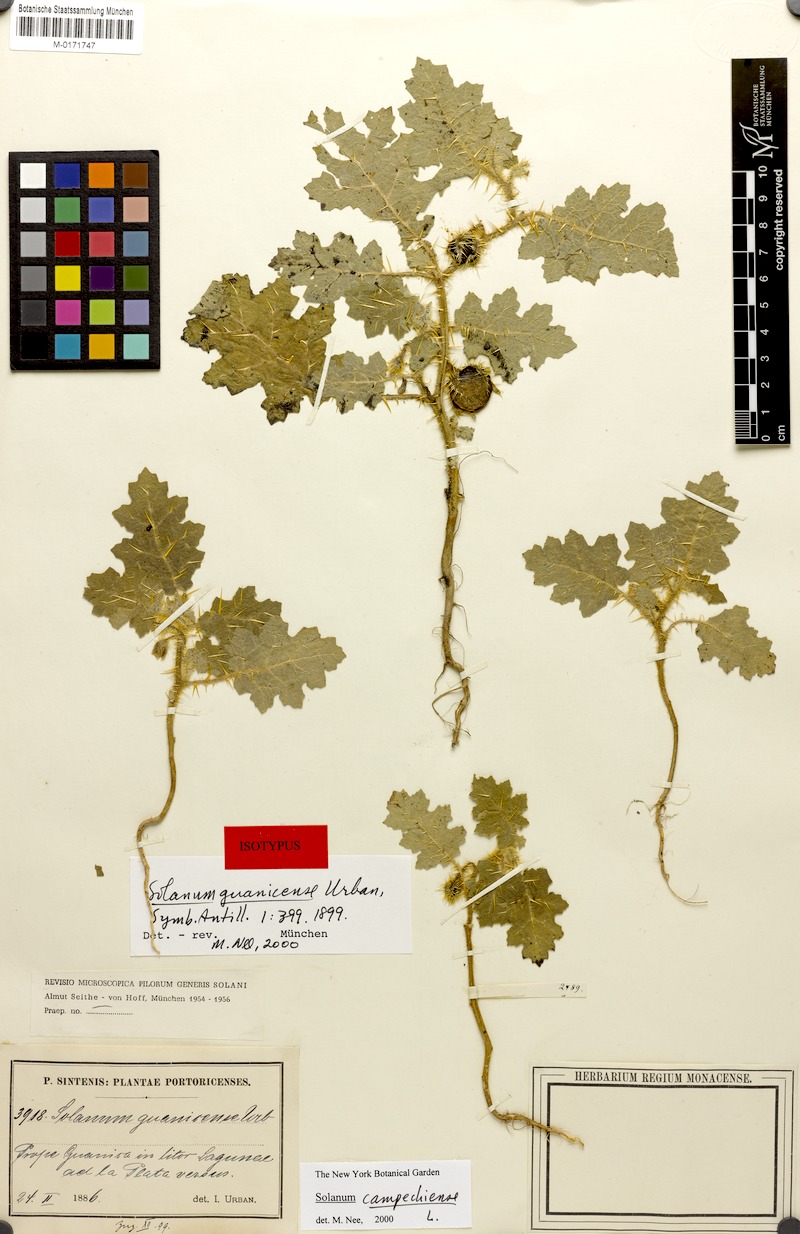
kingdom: Plantae
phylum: Tracheophyta
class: Magnoliopsida
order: Solanales
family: Solanaceae
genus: Solanum
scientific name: Solanum campechiense
